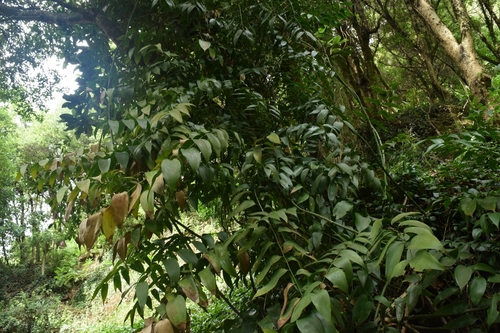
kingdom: Plantae
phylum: Tracheophyta
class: Liliopsida
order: Asparagales
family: Asparagaceae
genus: Semele
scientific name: Semele androgyna
